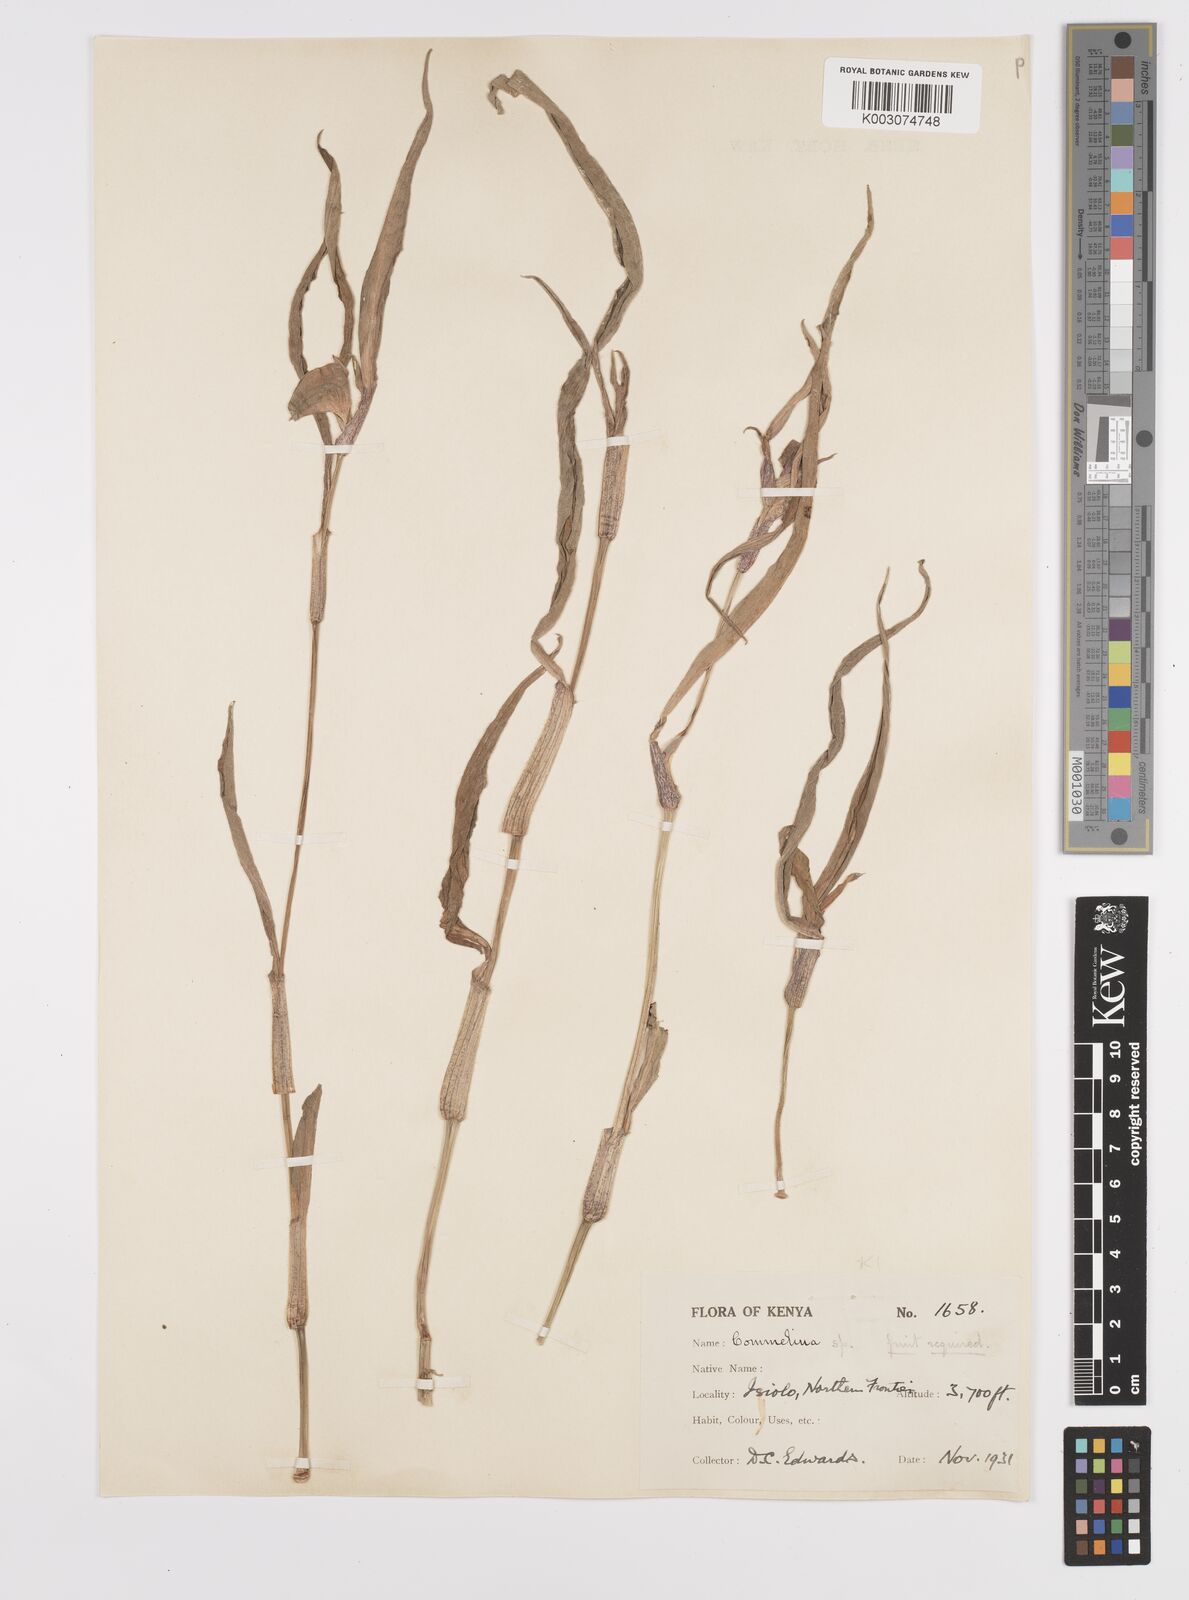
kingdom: Plantae
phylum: Tracheophyta
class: Liliopsida
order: Commelinales
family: Commelinaceae
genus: Commelina
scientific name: Commelina albescens
